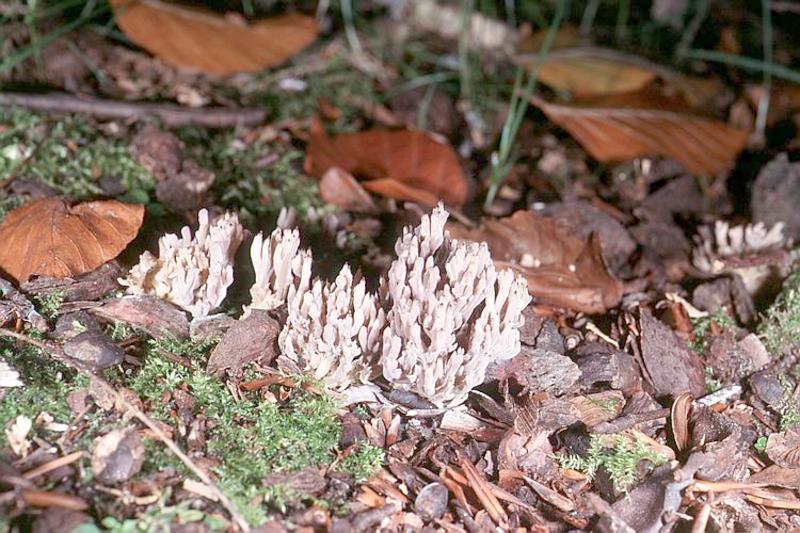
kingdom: Fungi
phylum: Basidiomycota
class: Agaricomycetes
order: Cantharellales
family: Hydnaceae
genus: Clavulina
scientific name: Clavulina cinerea
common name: Grey coral
